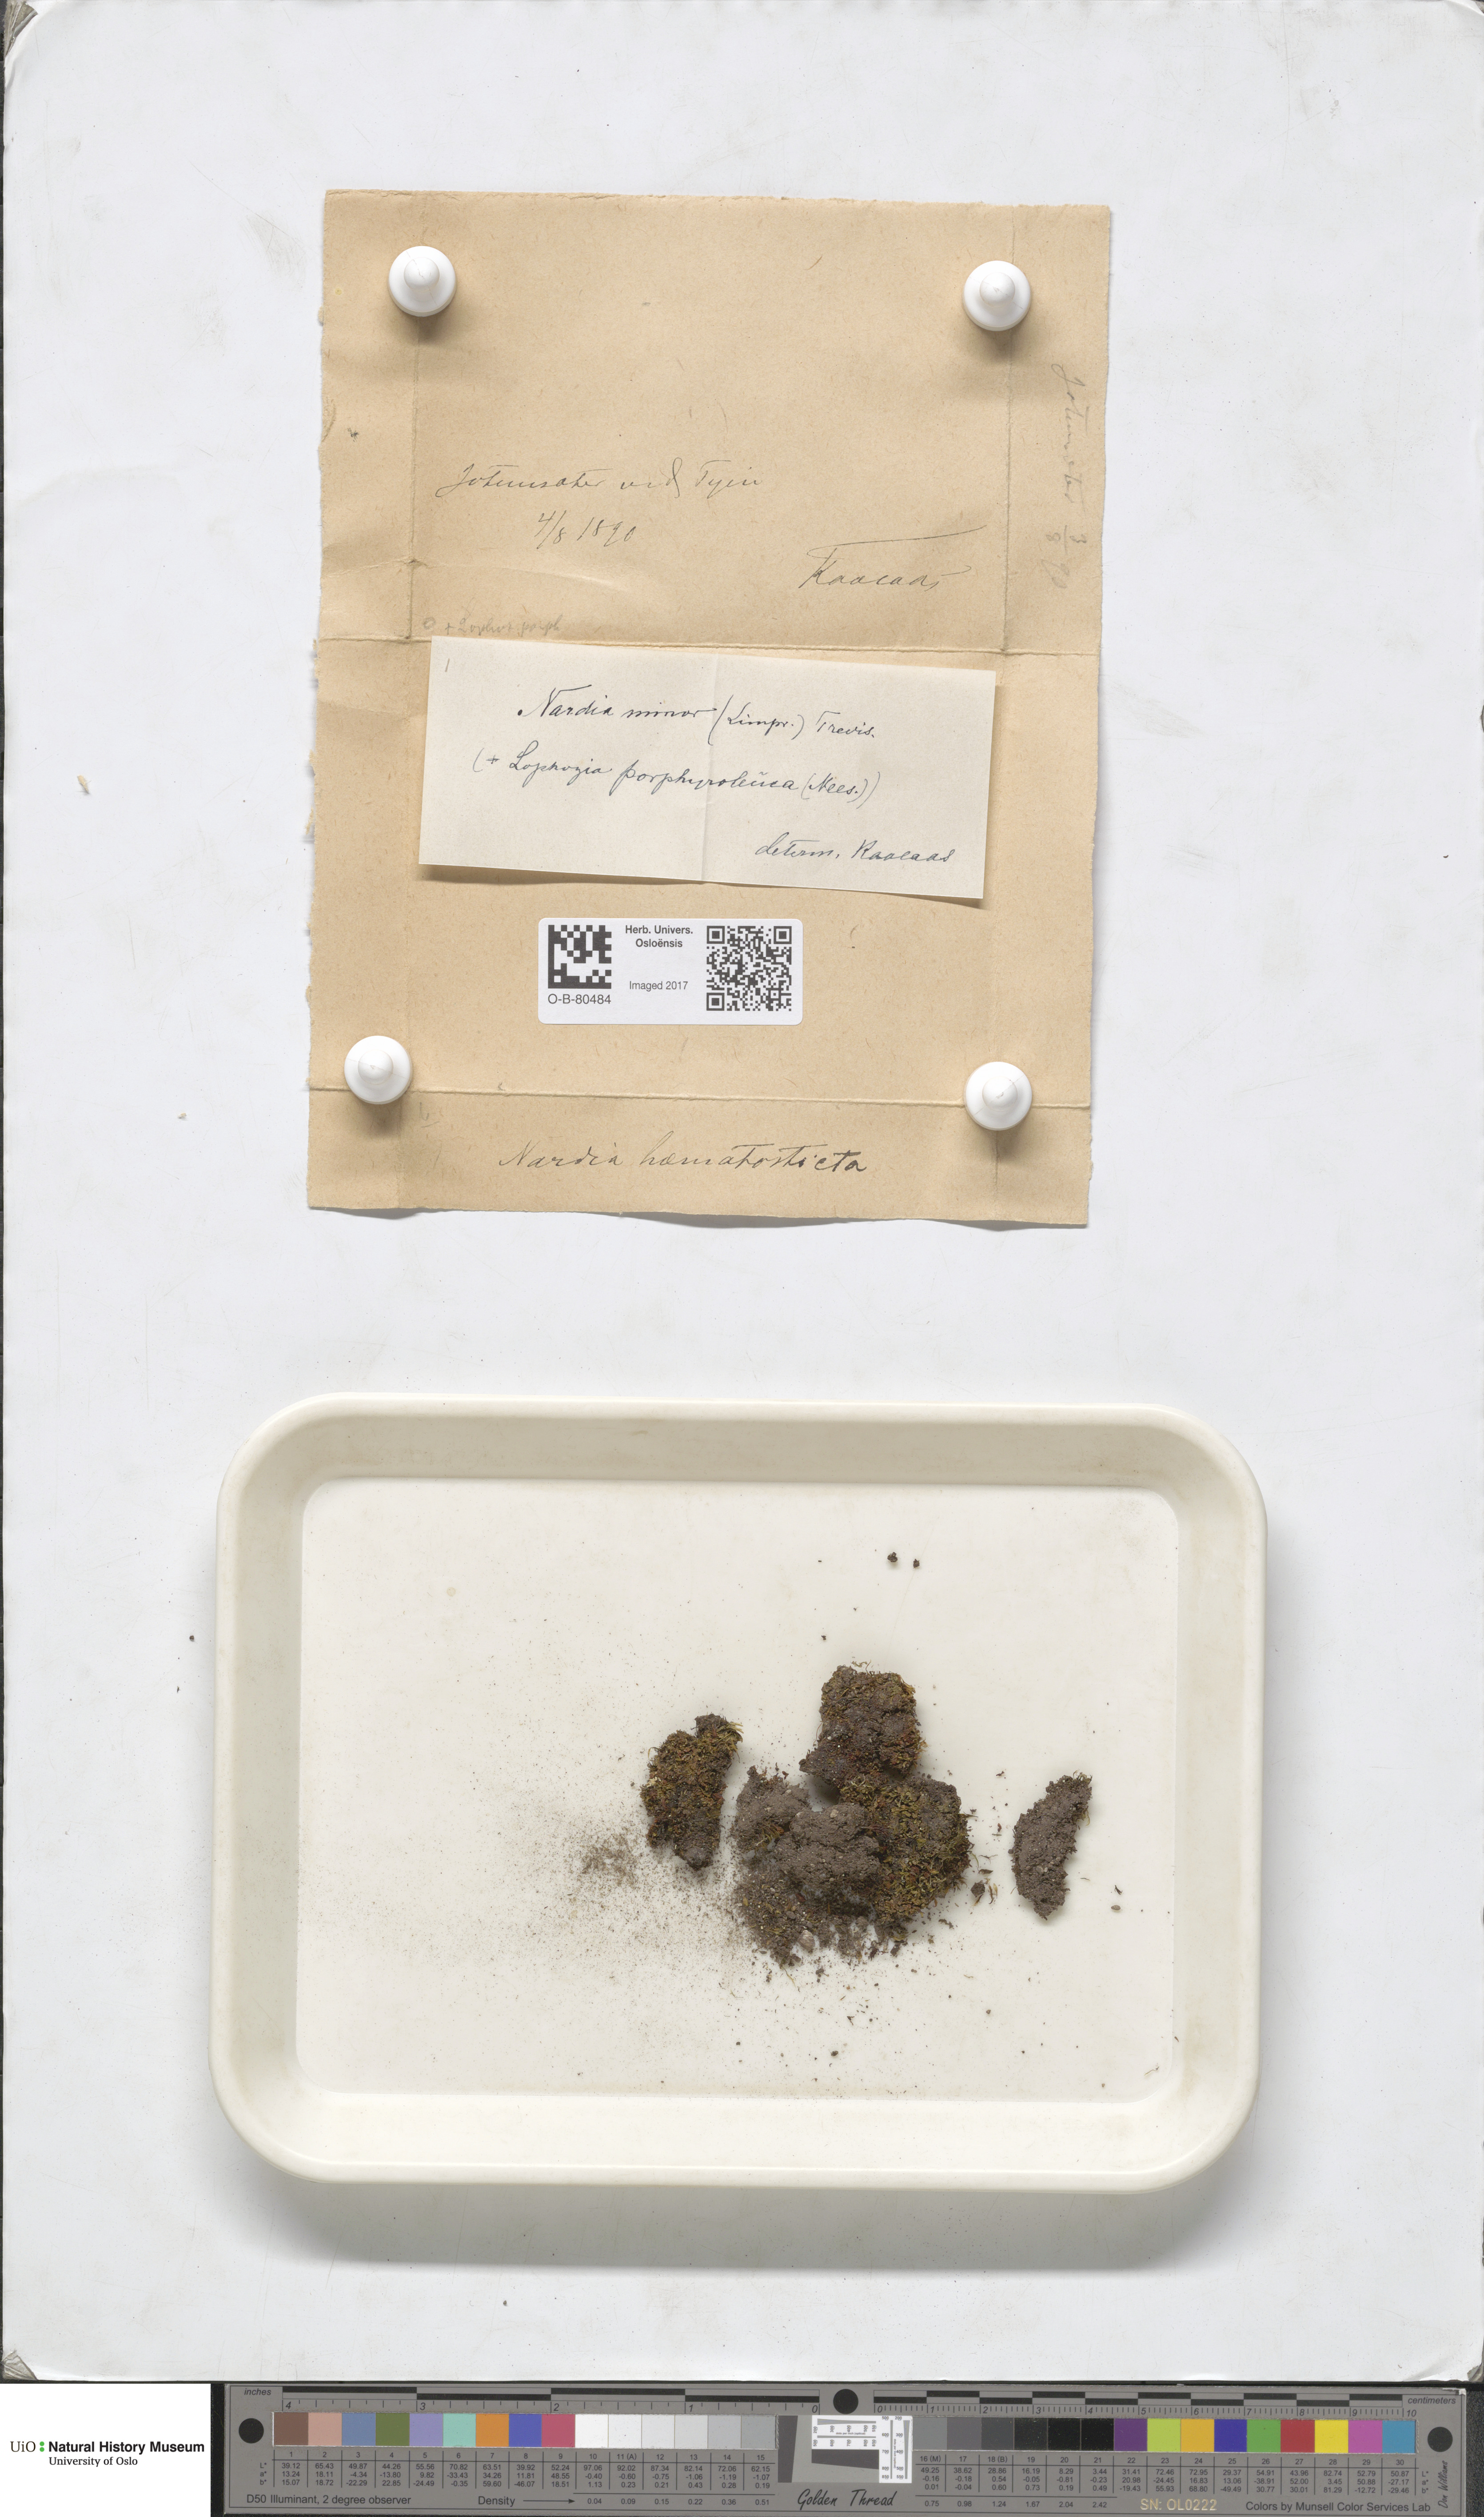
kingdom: Plantae
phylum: Marchantiophyta
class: Jungermanniopsida
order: Jungermanniales
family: Gymnomitriaceae
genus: Nardia
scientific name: Nardia geoscyphus
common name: Earth-cup flapwort
